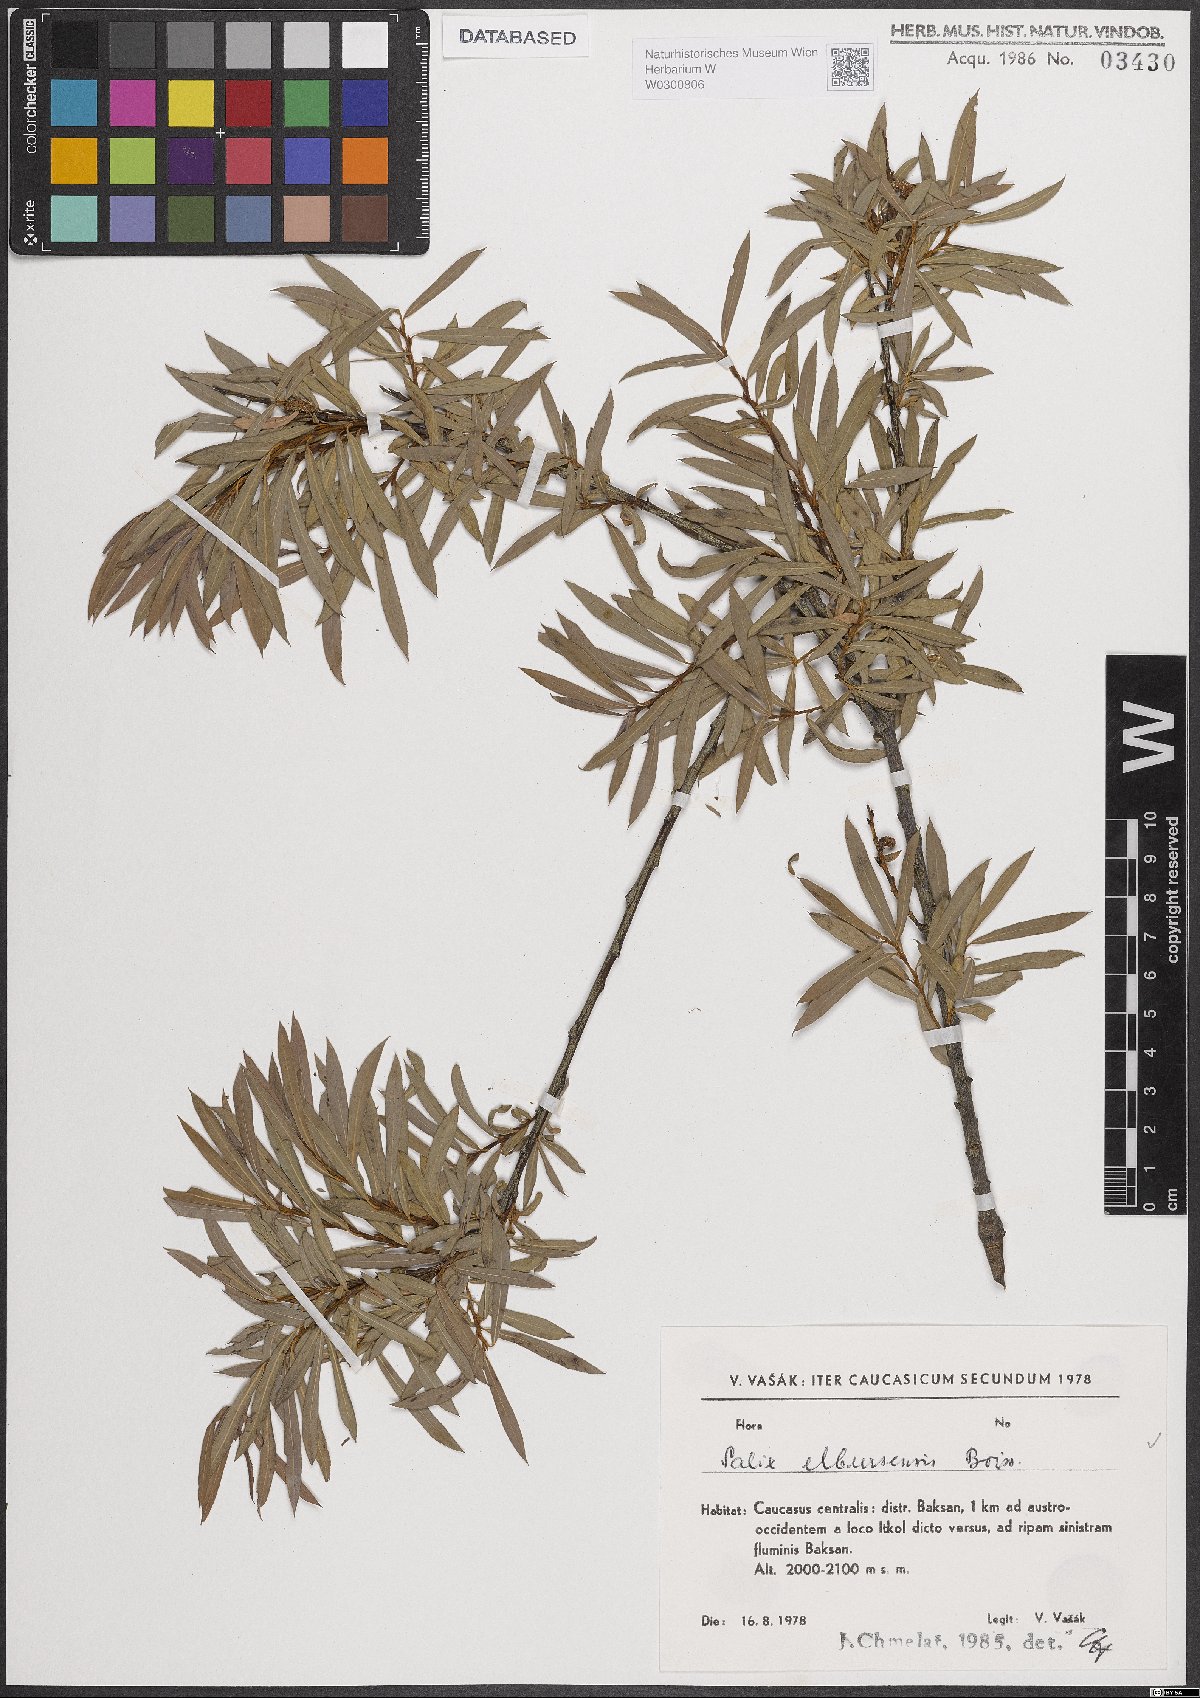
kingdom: Plantae
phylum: Tracheophyta
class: Magnoliopsida
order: Malpighiales
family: Salicaceae
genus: Salix
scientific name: Salix elbursensis
